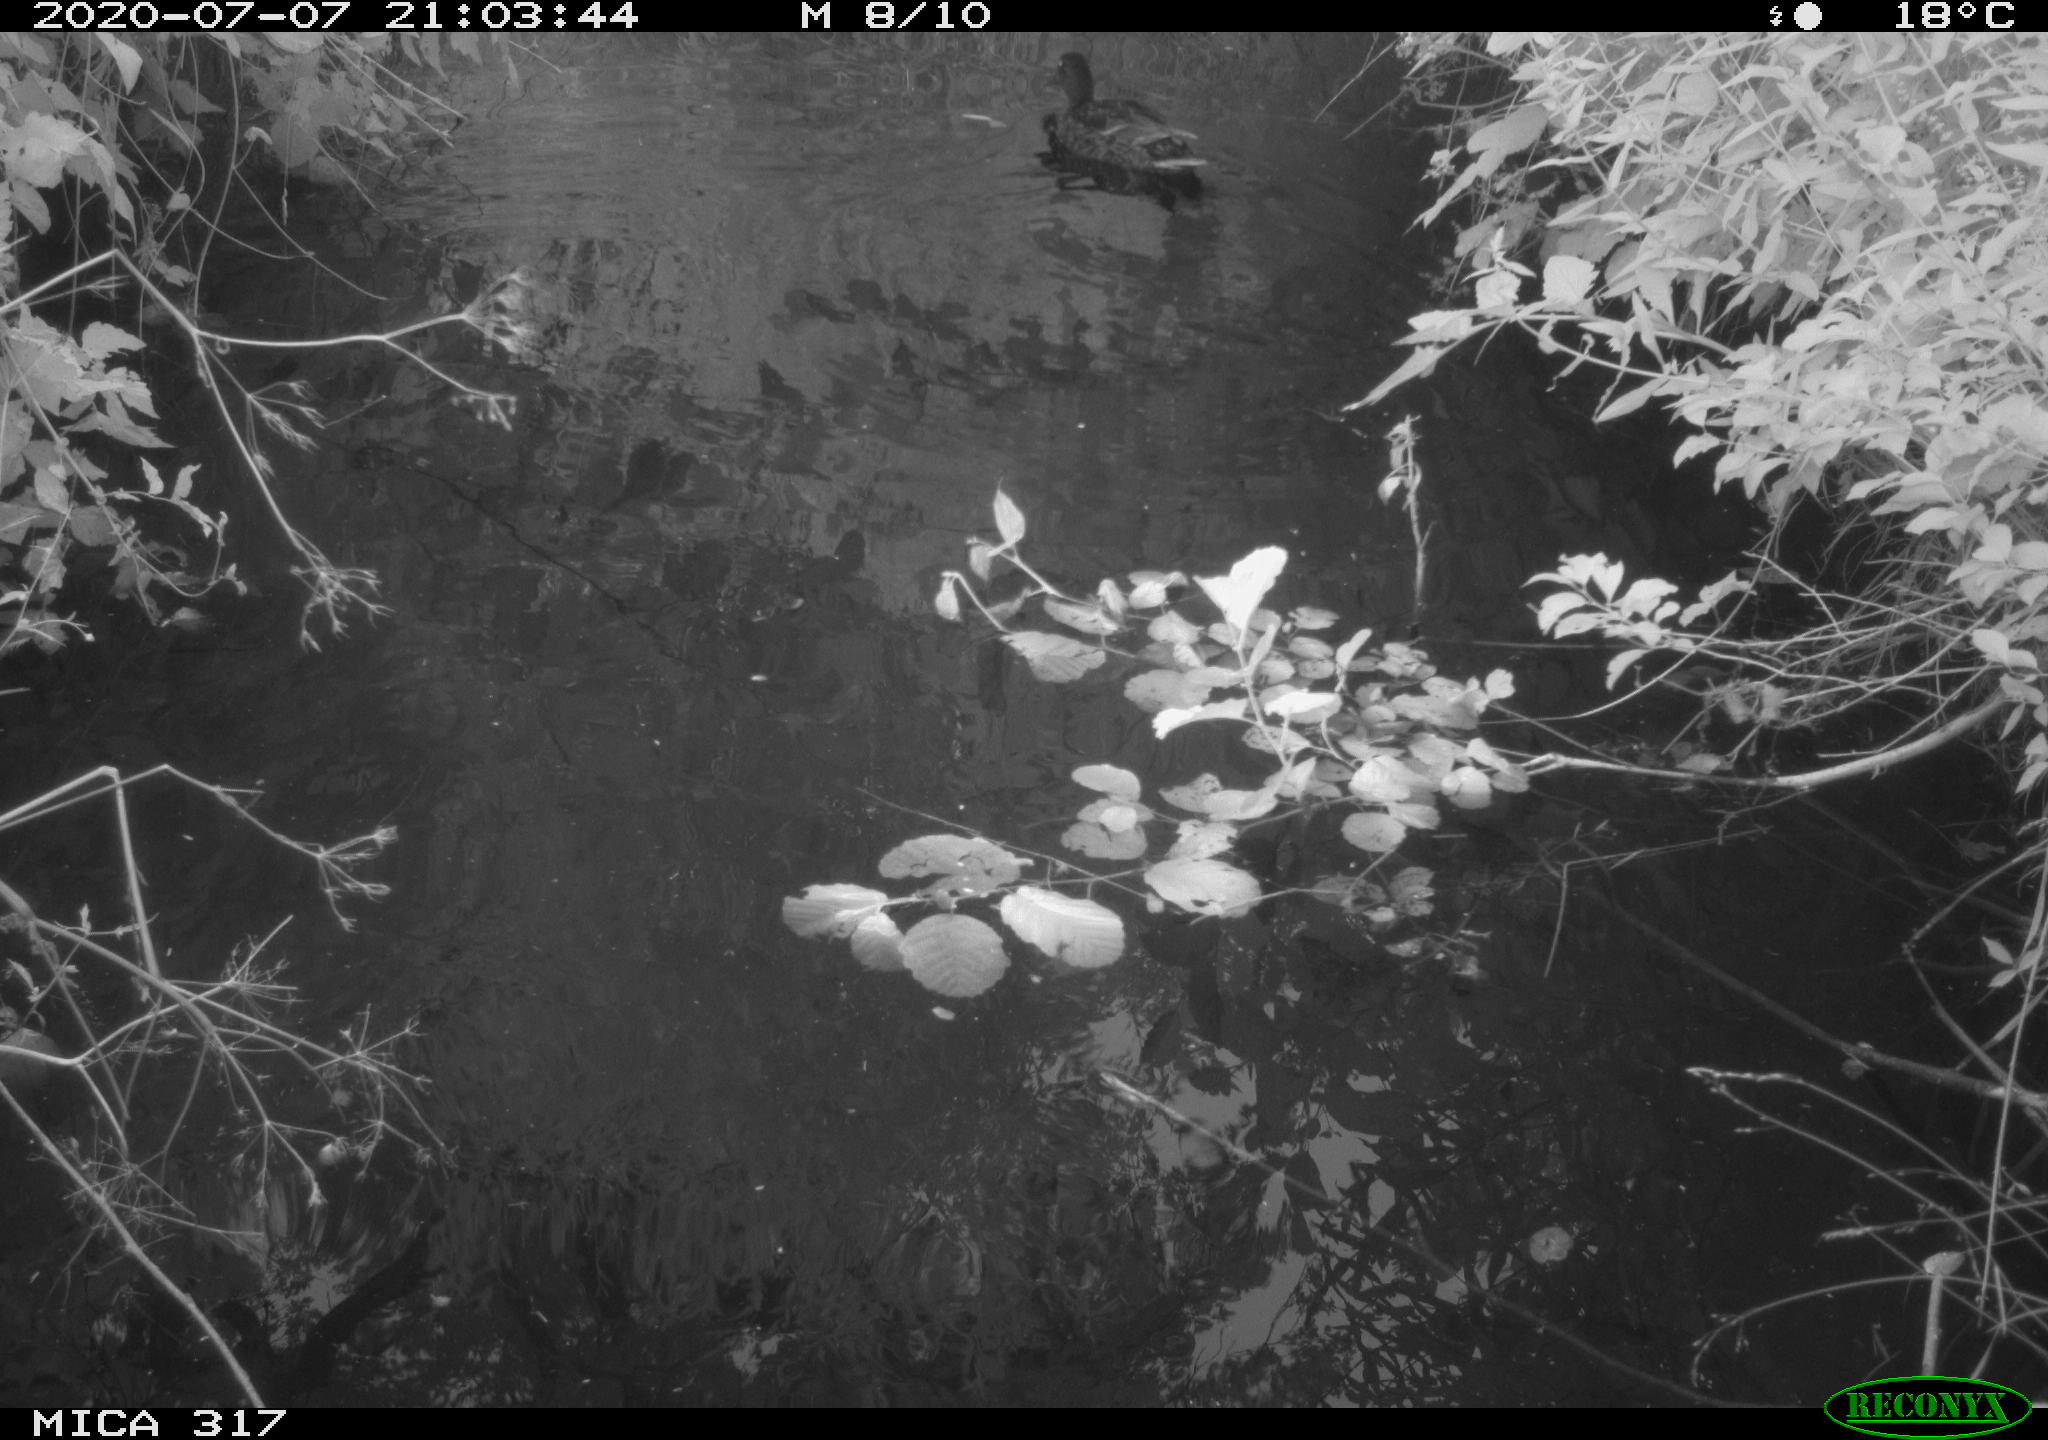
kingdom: Animalia
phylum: Chordata
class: Aves
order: Anseriformes
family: Anatidae
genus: Anas
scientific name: Anas platyrhynchos
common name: Mallard
